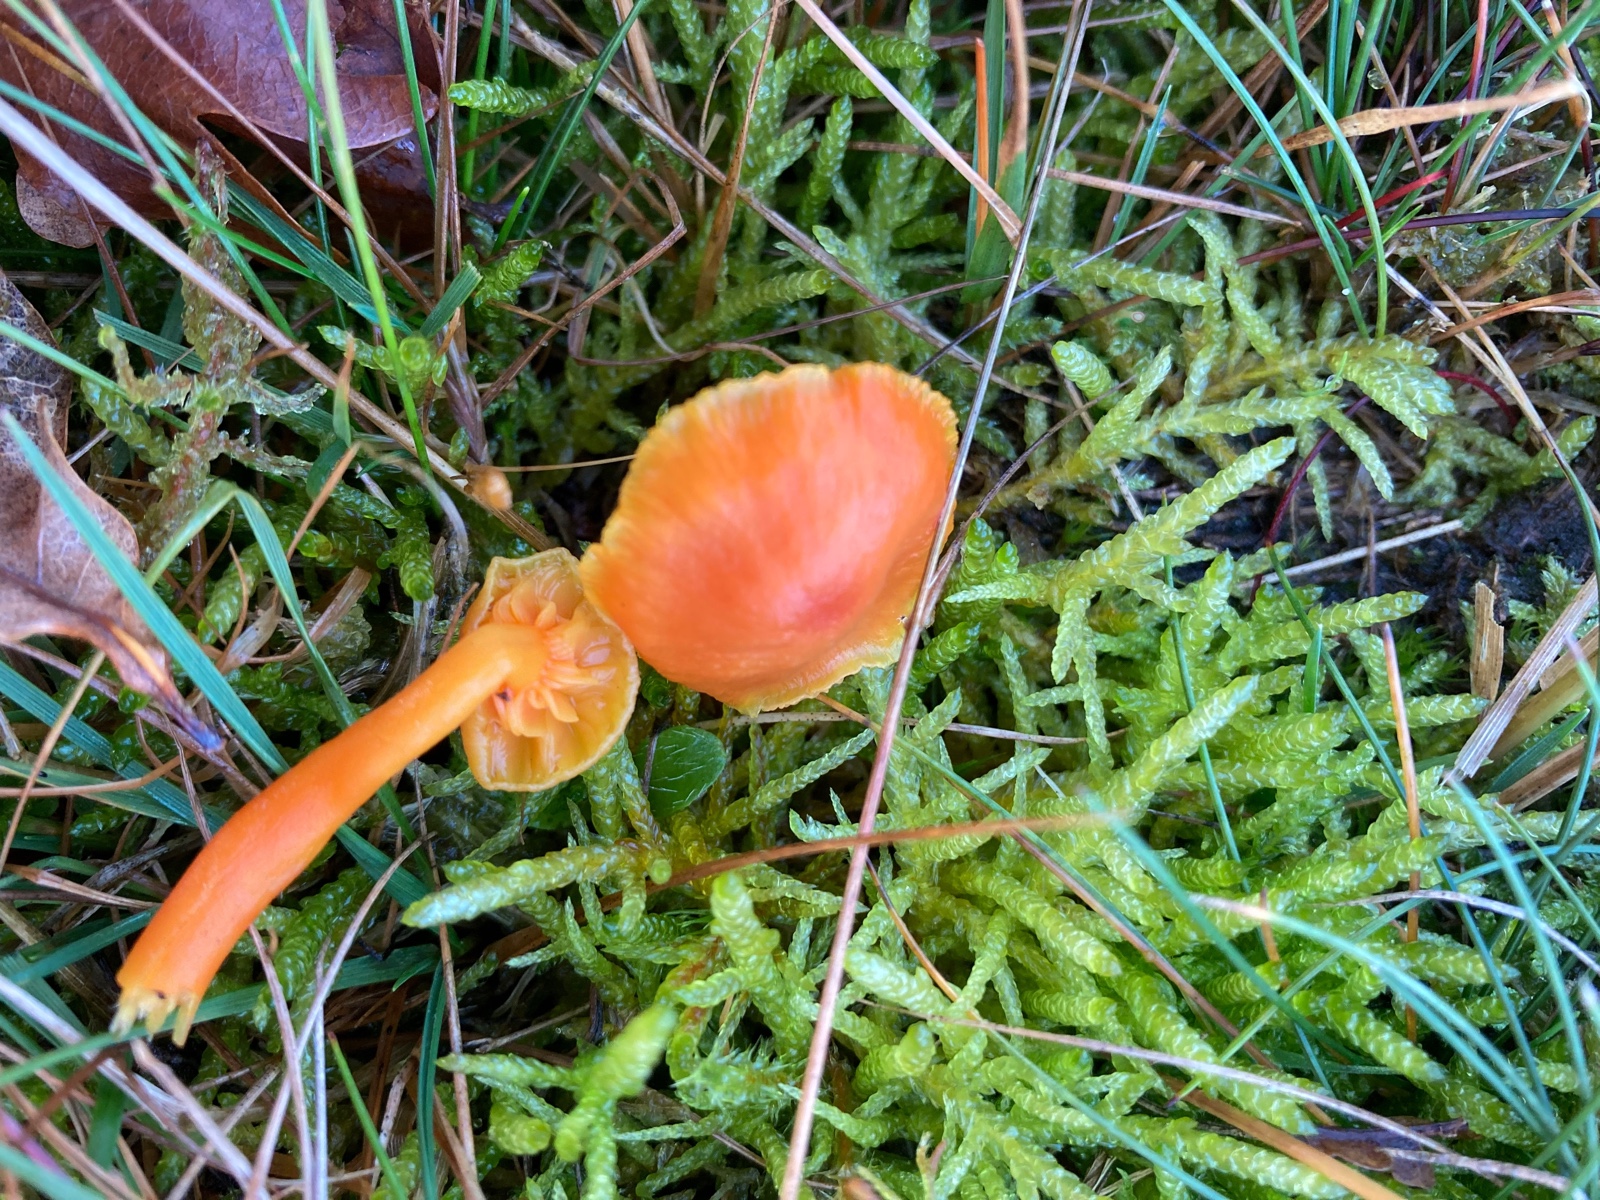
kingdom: Fungi
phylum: Basidiomycota
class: Agaricomycetes
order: Agaricales
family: Hygrophoraceae
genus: Hygrocybe
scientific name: Hygrocybe
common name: vokshat
